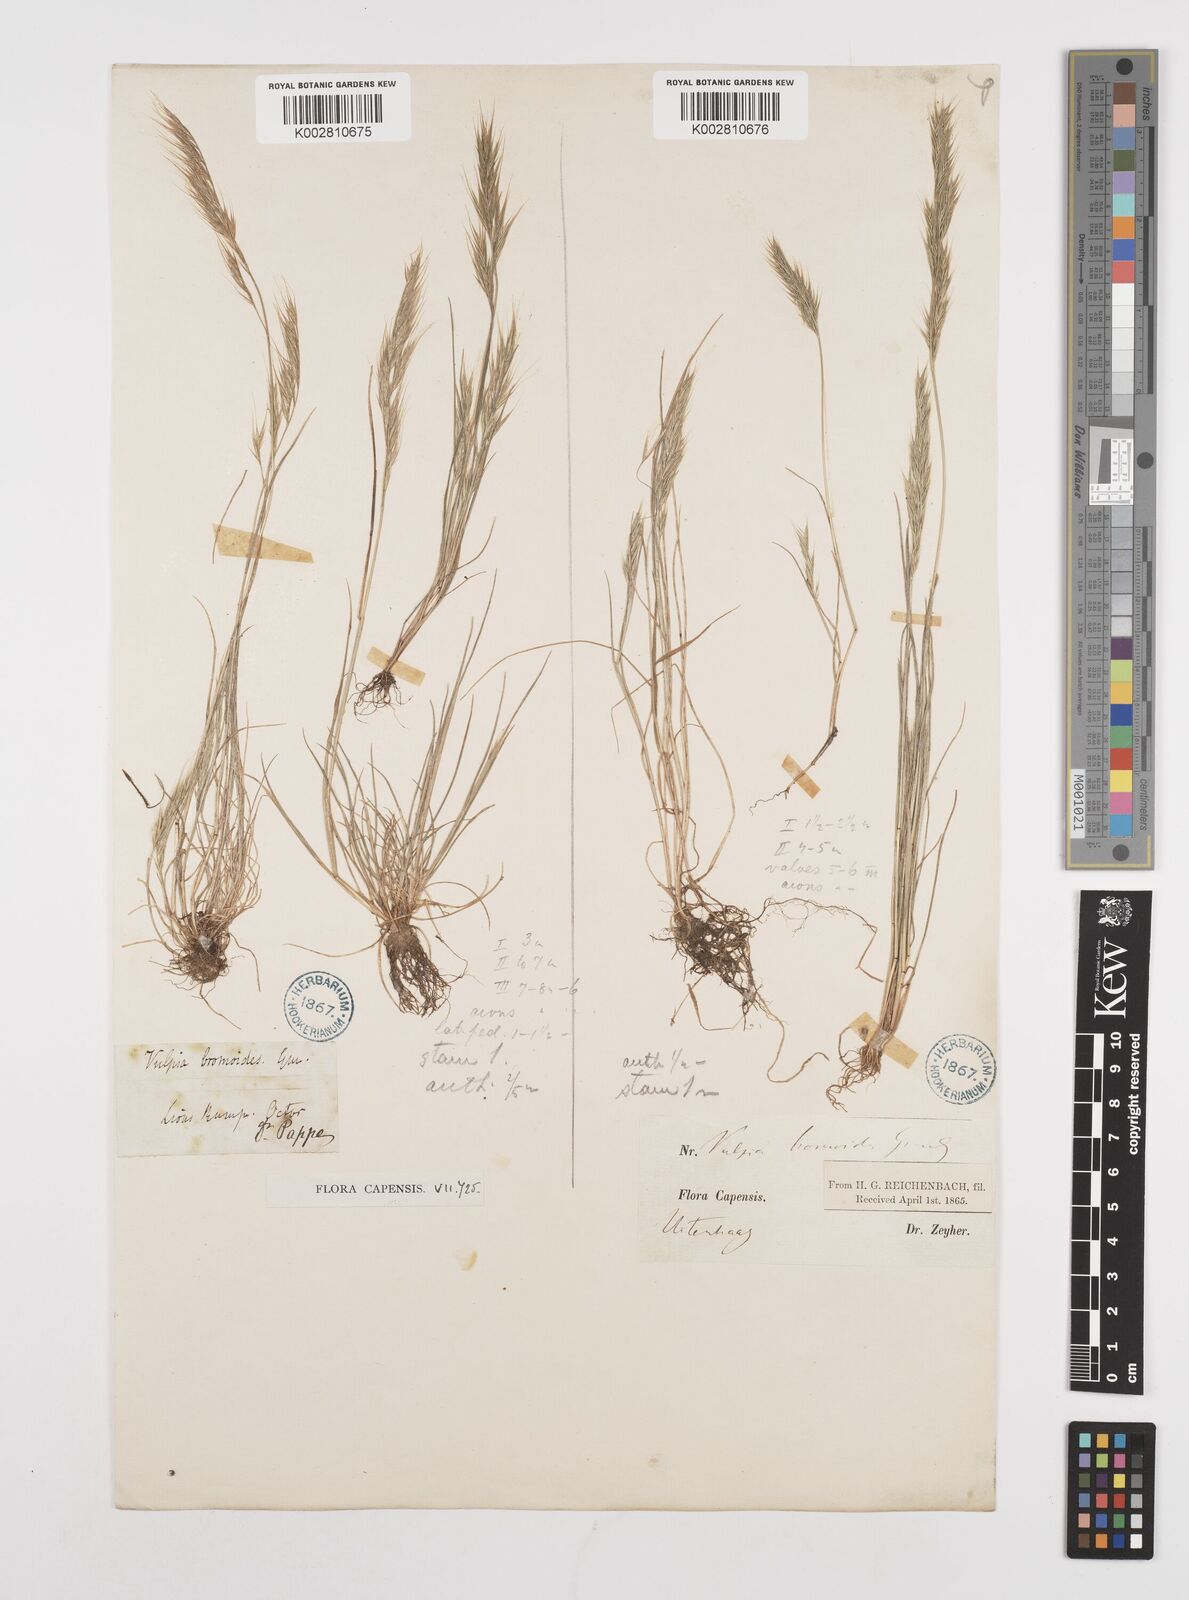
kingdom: Plantae
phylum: Tracheophyta
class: Liliopsida
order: Poales
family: Poaceae
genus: Festuca
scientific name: Festuca bromoides
